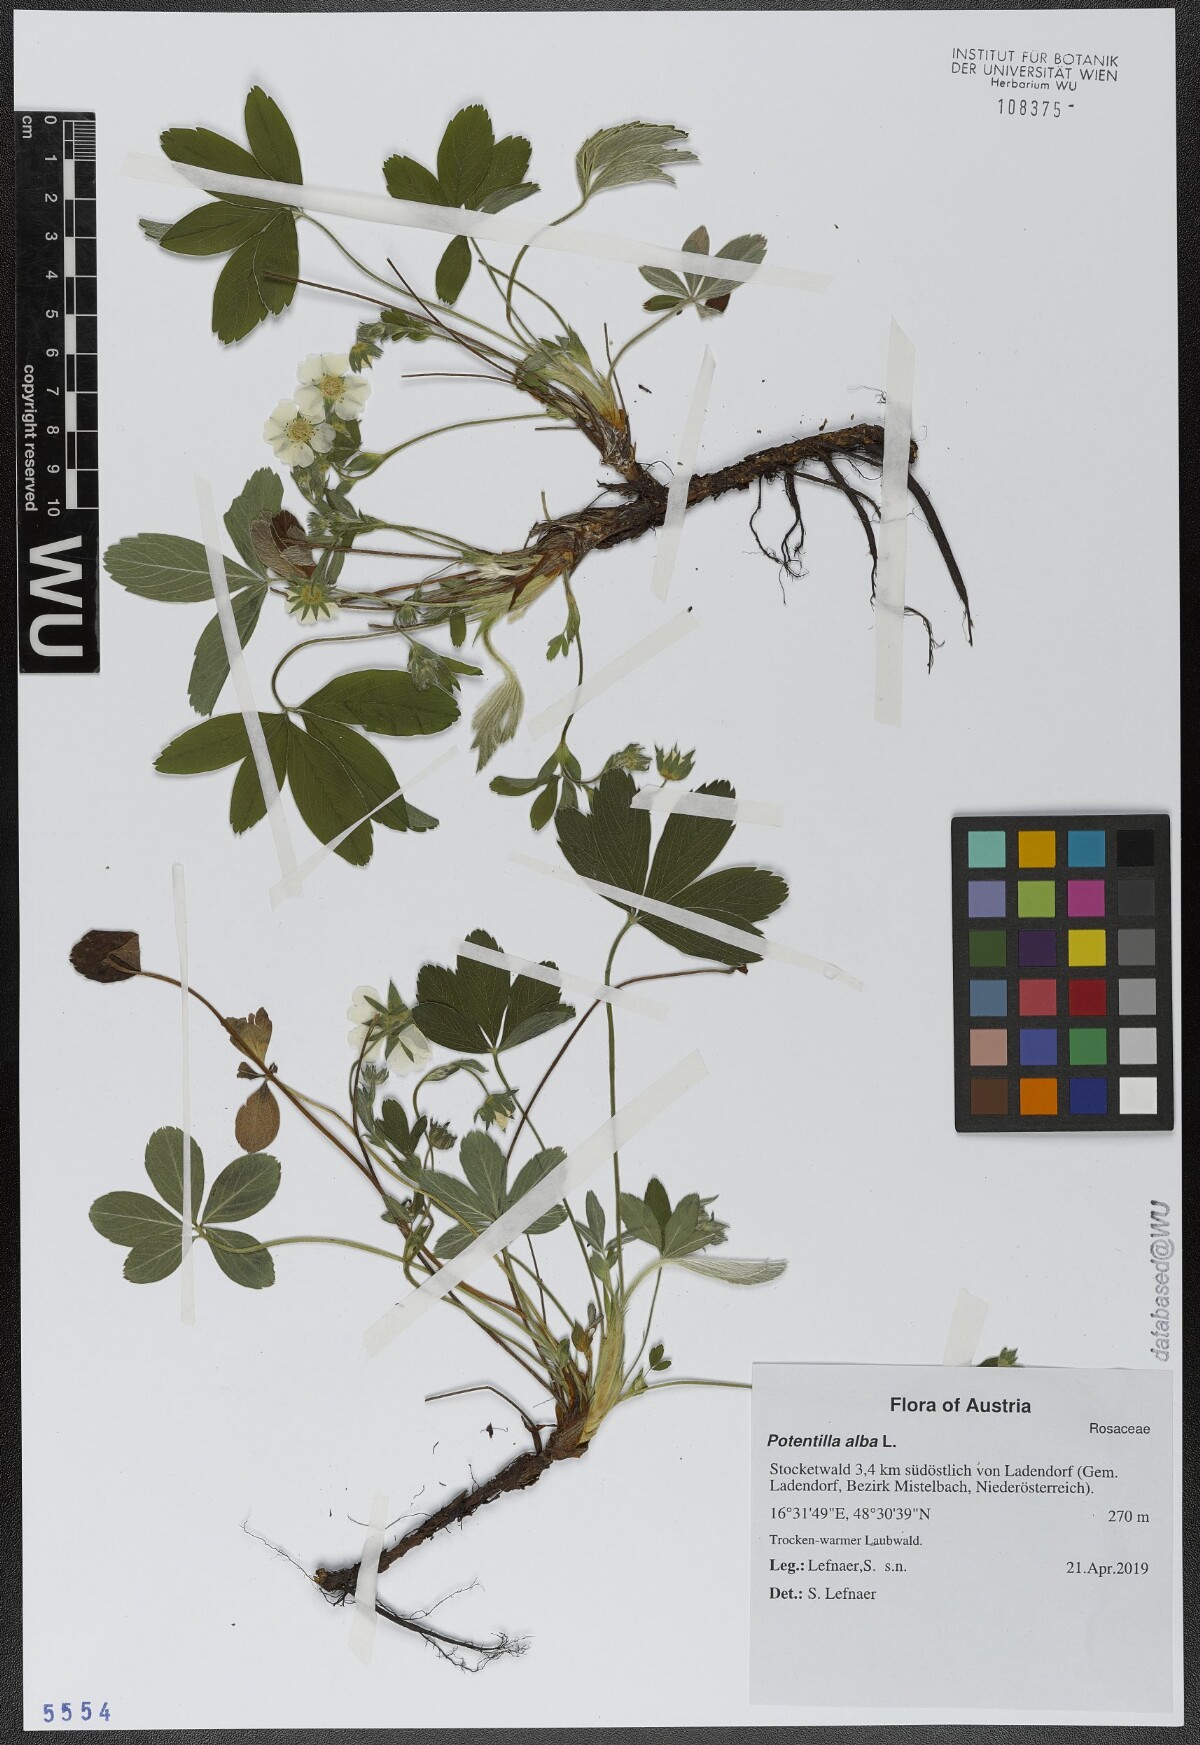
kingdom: Plantae
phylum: Tracheophyta
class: Magnoliopsida
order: Rosales
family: Rosaceae
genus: Potentilla
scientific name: Potentilla alba
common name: White cinquefoil
